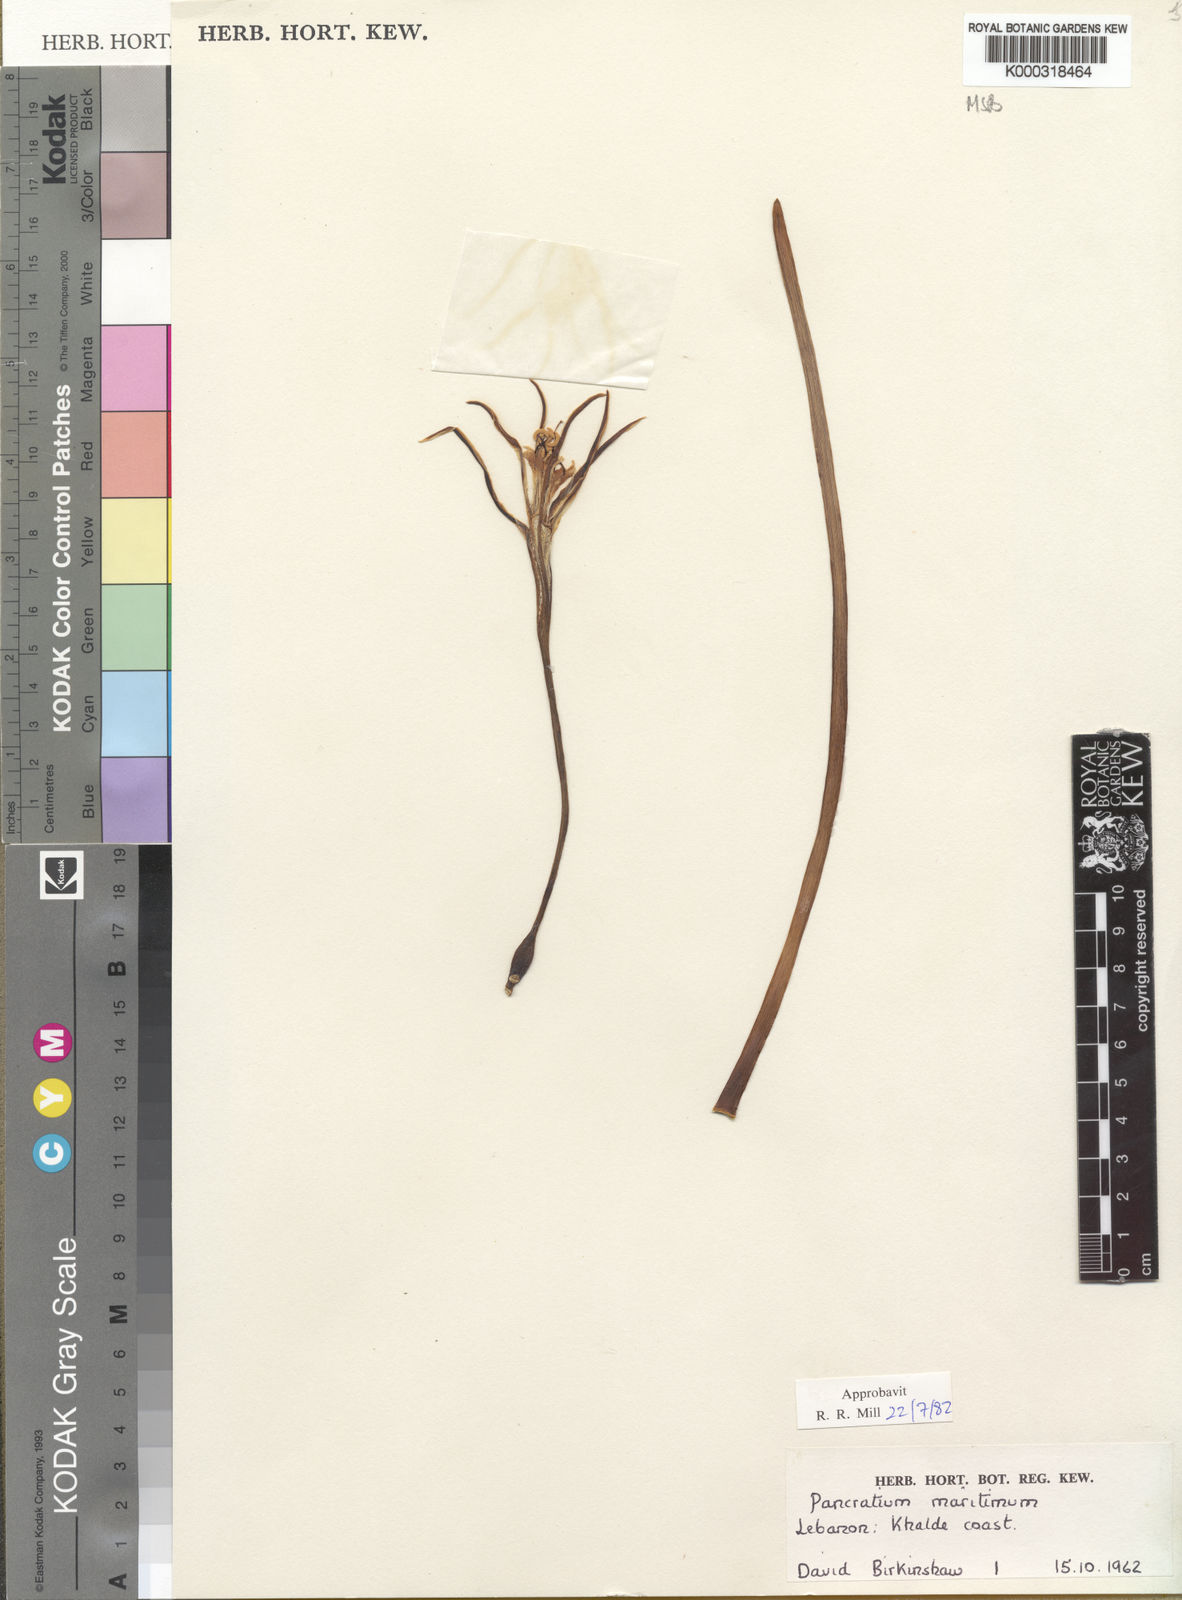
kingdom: Plantae
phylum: Tracheophyta
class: Liliopsida
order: Asparagales
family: Amaryllidaceae
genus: Pancratium
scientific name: Pancratium maritimum
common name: Sea-daffodil
